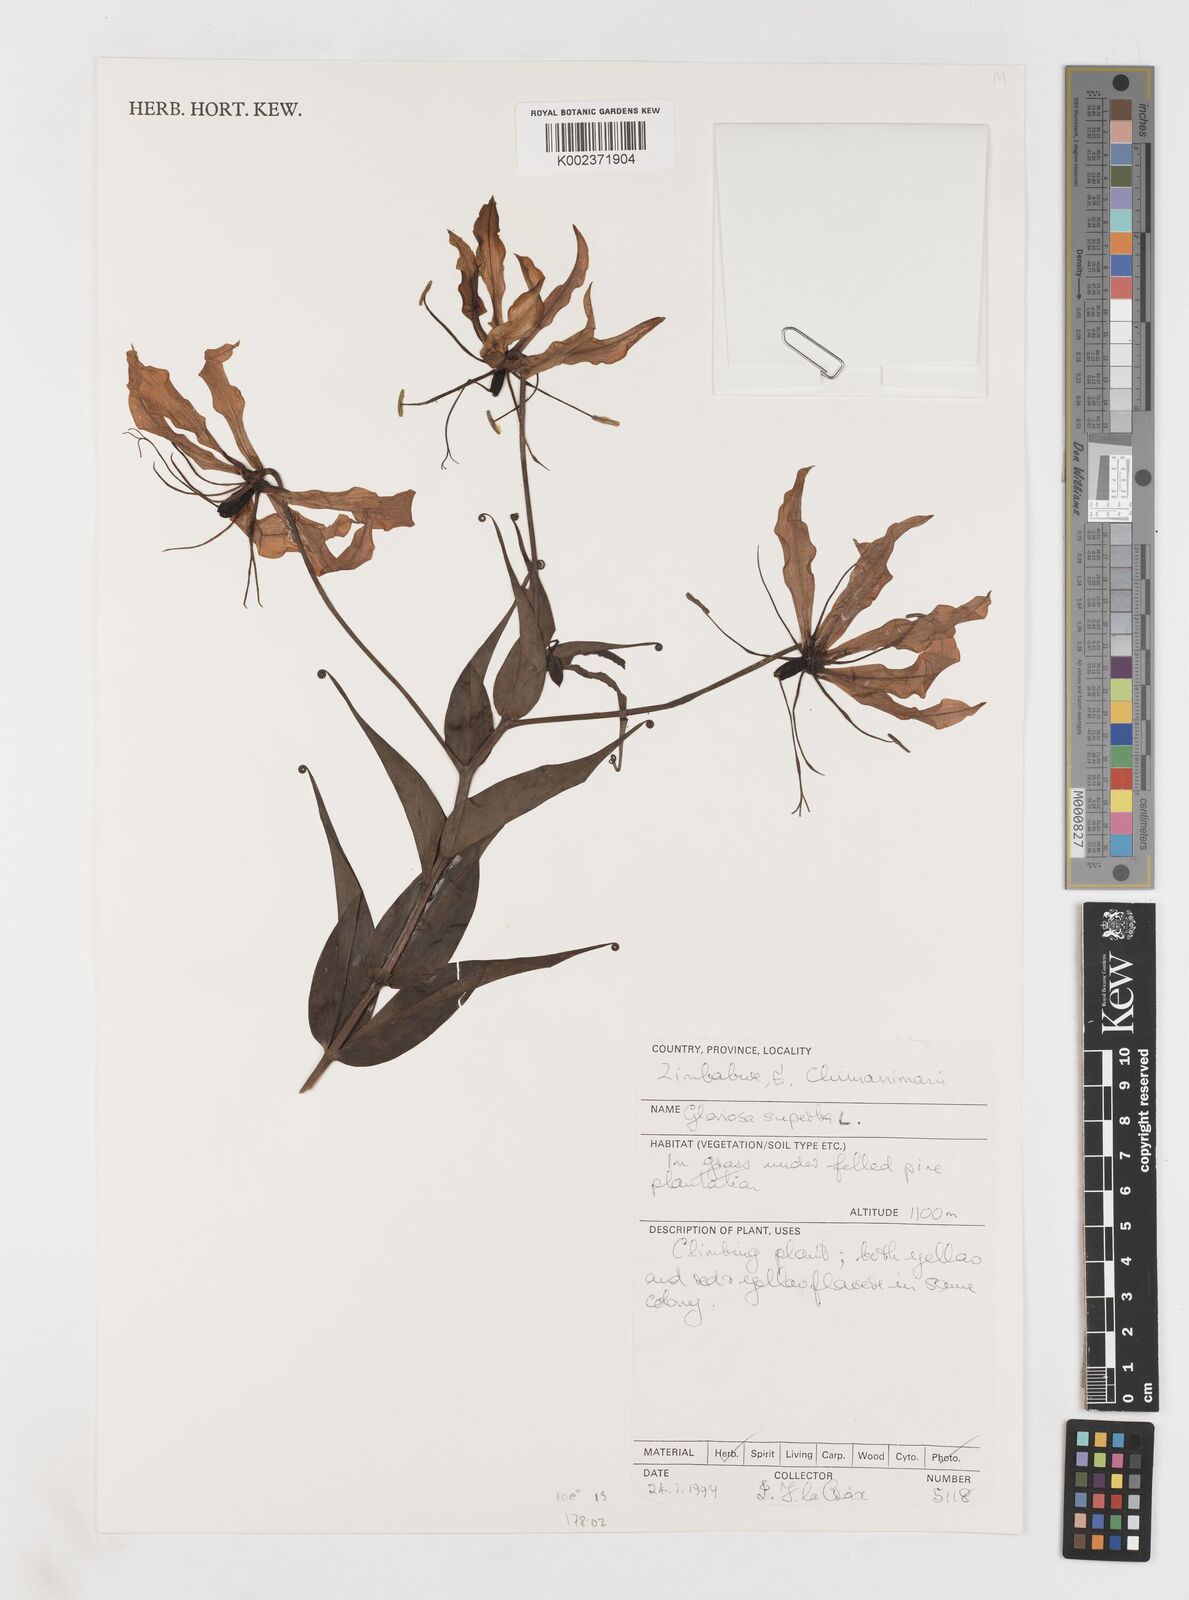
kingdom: Plantae
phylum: Tracheophyta
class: Liliopsida
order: Liliales
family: Colchicaceae
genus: Gloriosa
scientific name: Gloriosa simplex
